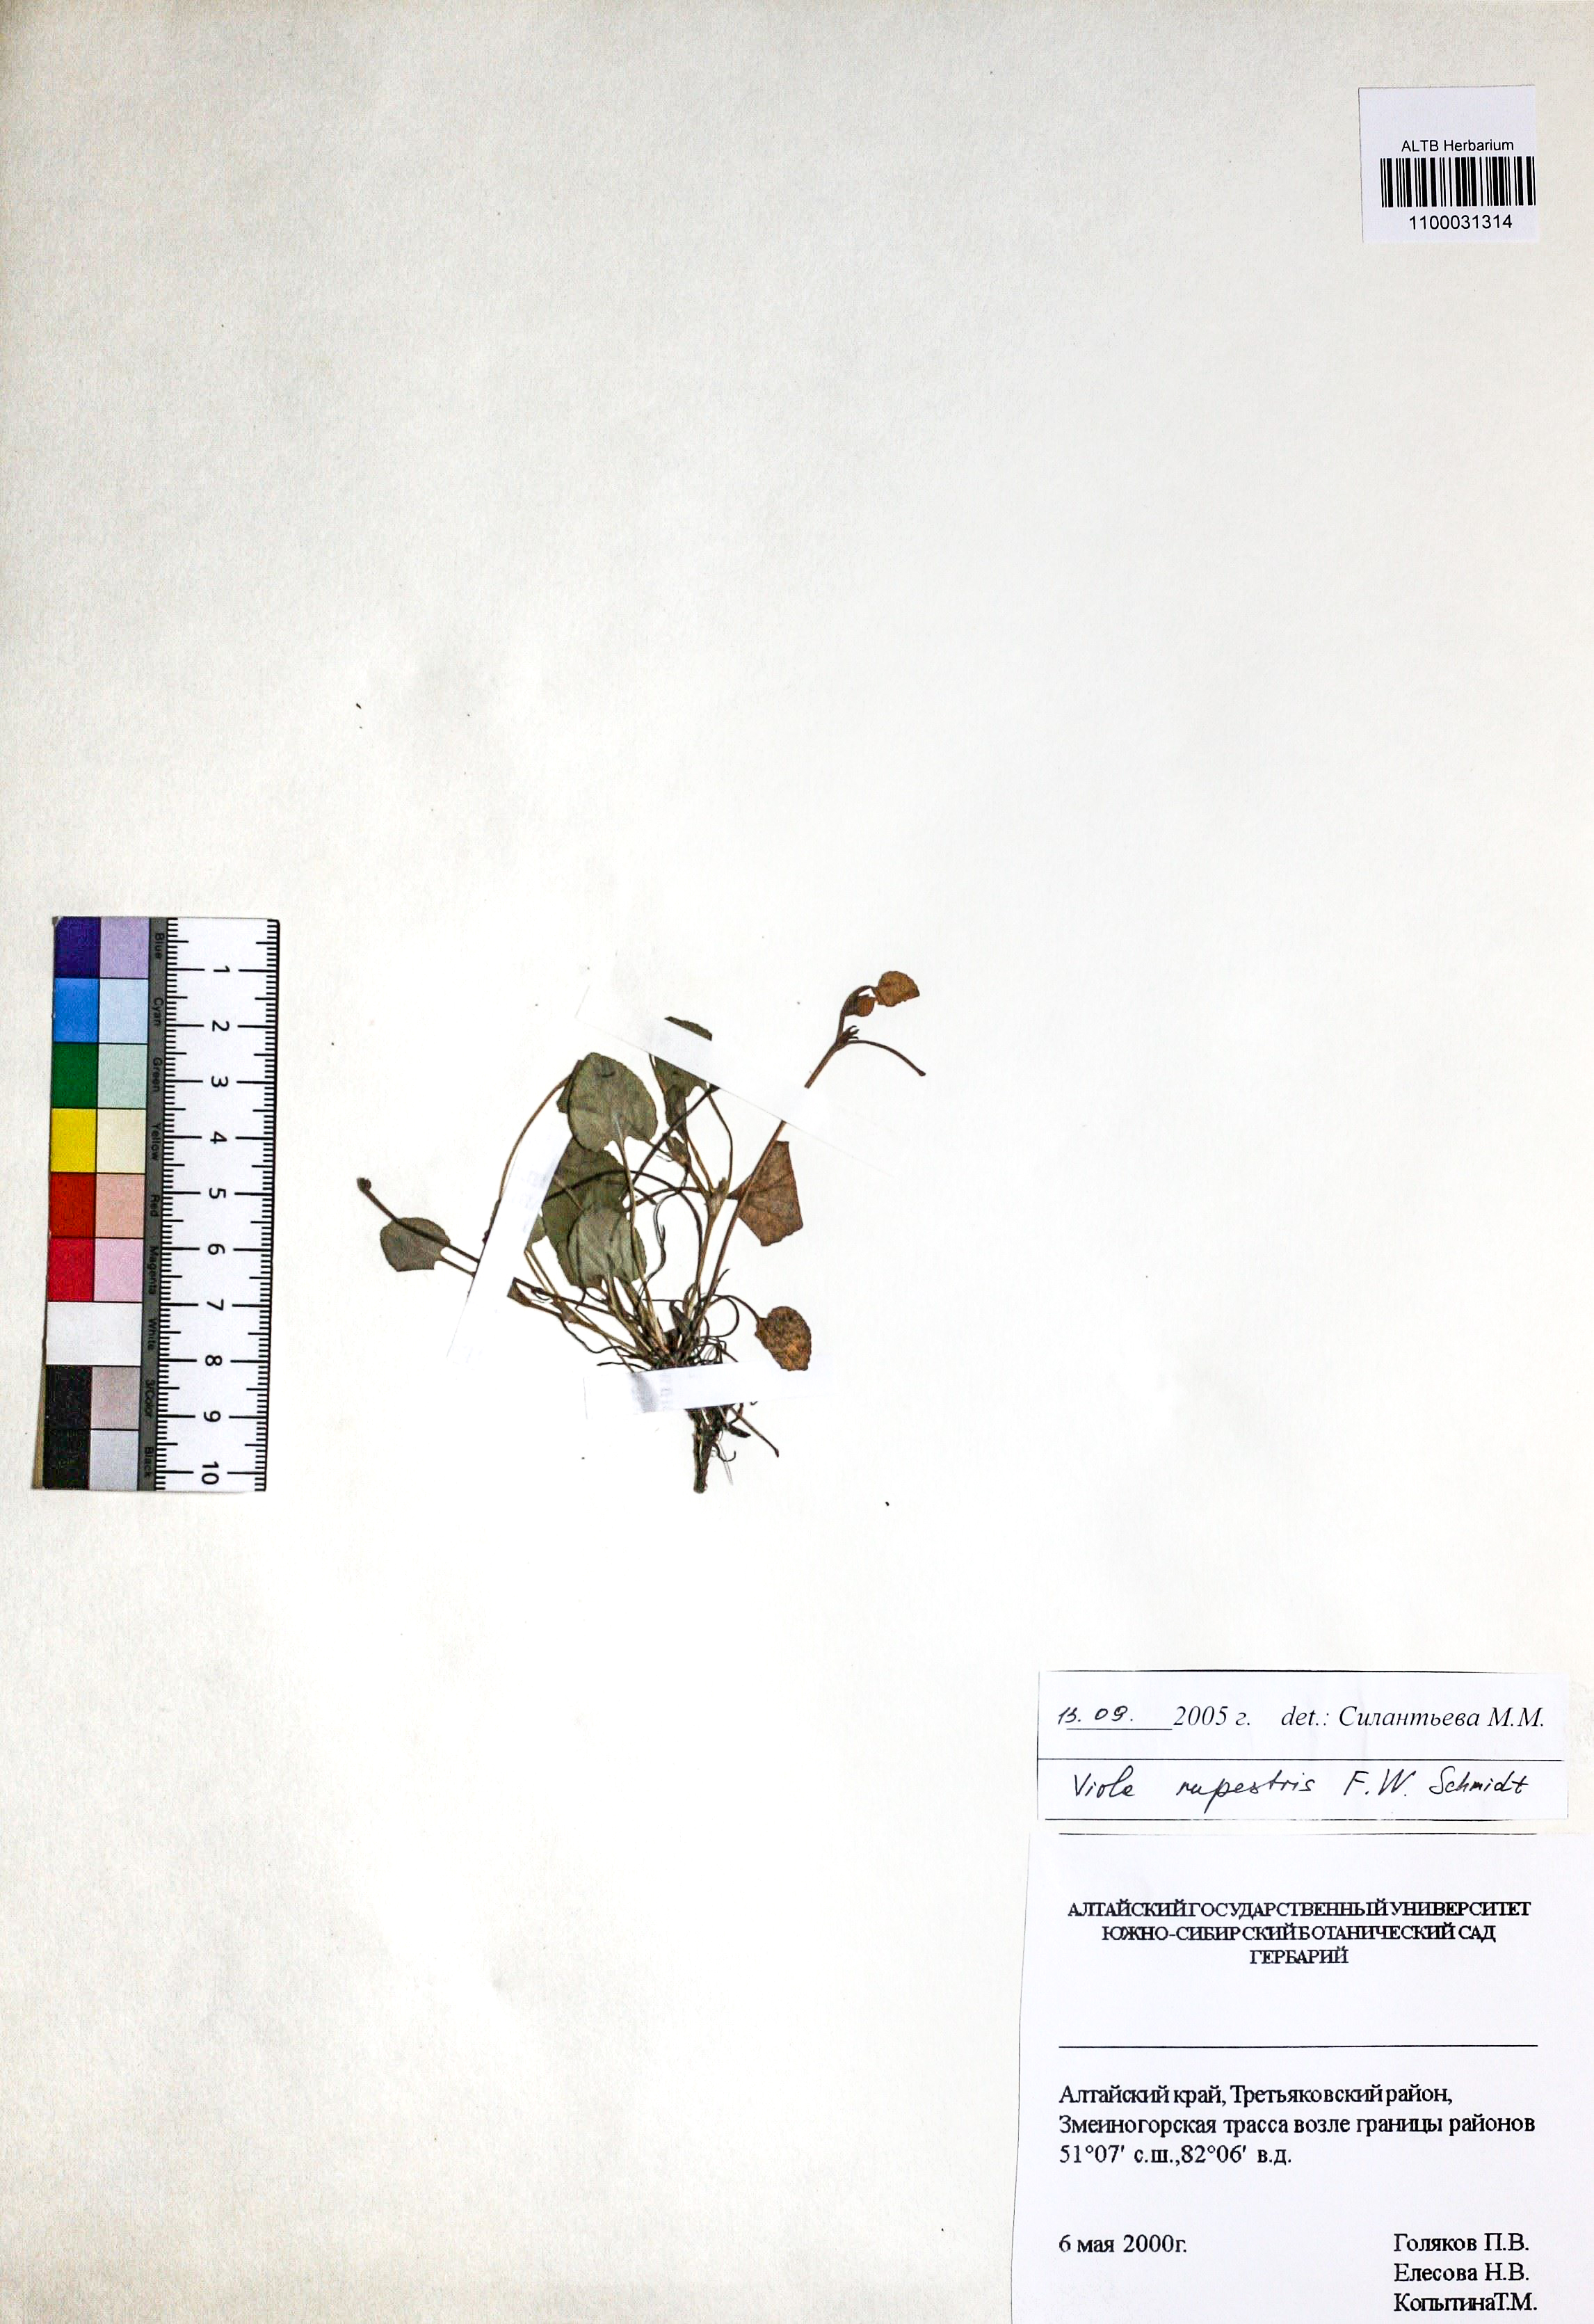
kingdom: Plantae
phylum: Tracheophyta
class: Magnoliopsida
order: Malpighiales
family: Violaceae
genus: Viola
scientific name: Viola rupestris
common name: Teesdale violet
